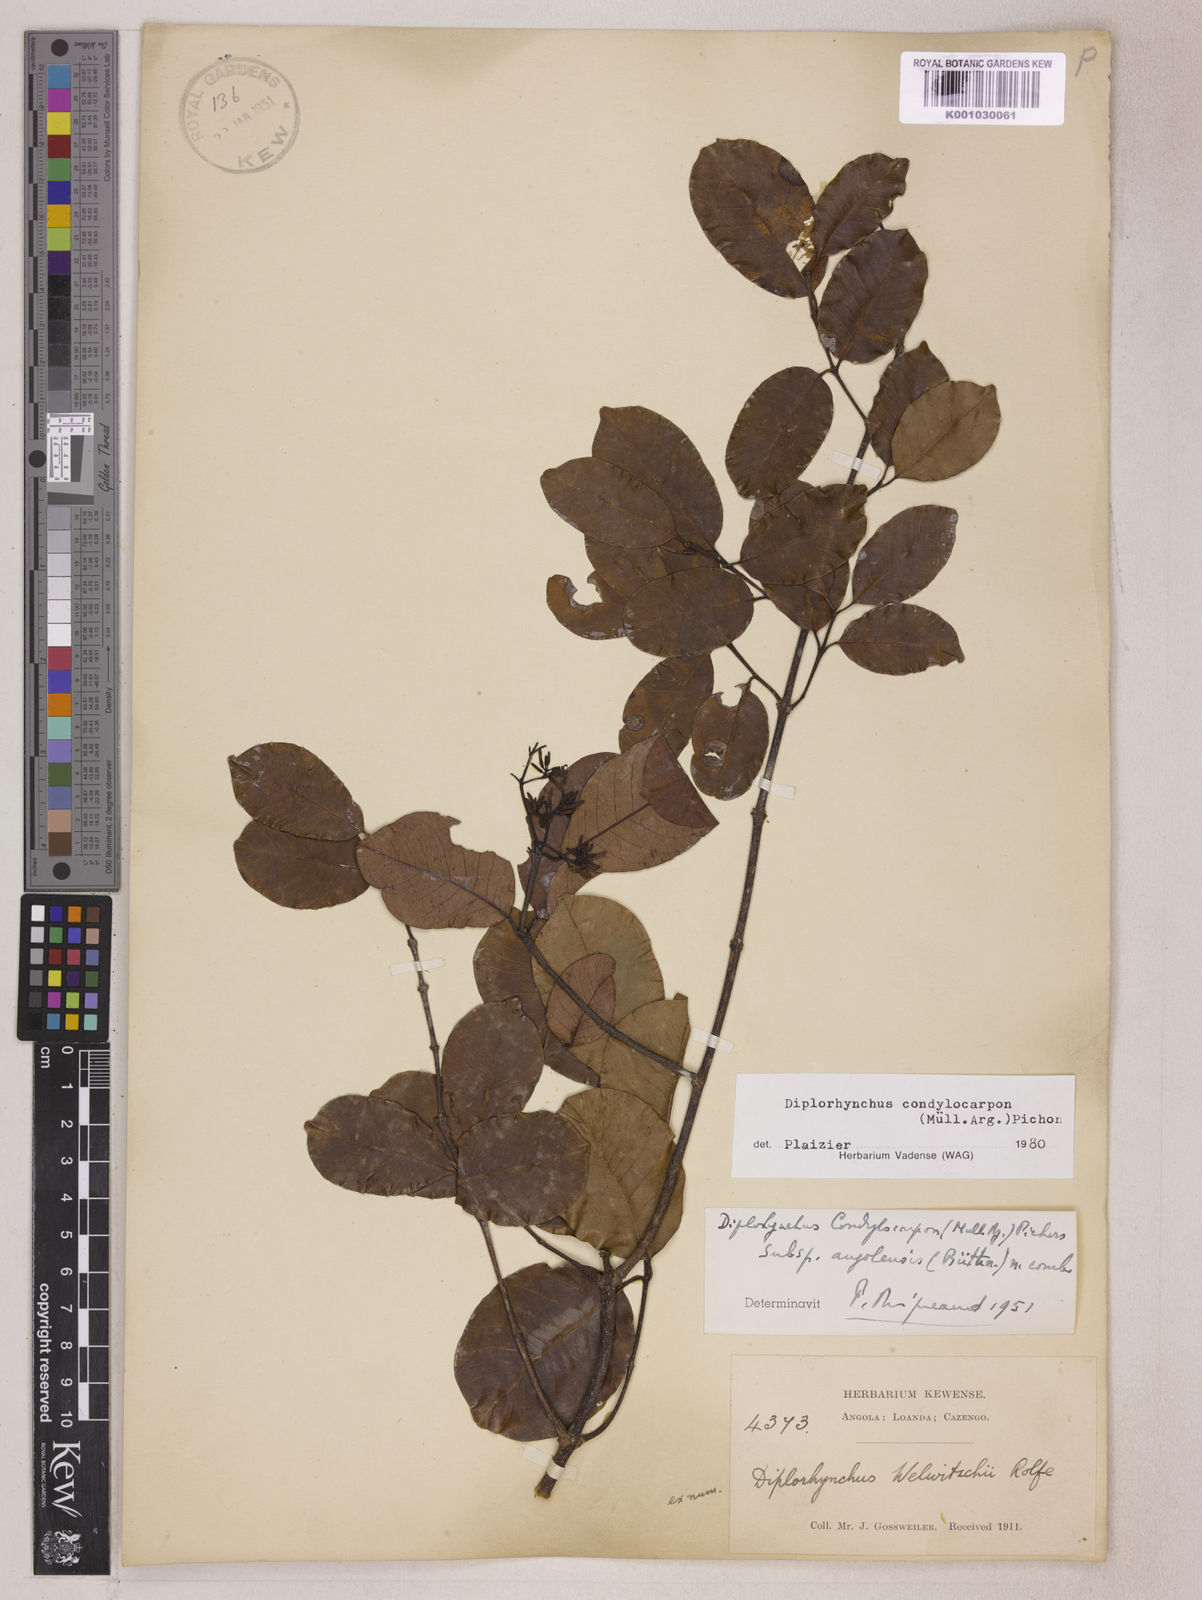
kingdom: Plantae
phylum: Tracheophyta
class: Magnoliopsida
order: Gentianales
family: Apocynaceae
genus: Diplorhynchus
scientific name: Diplorhynchus
